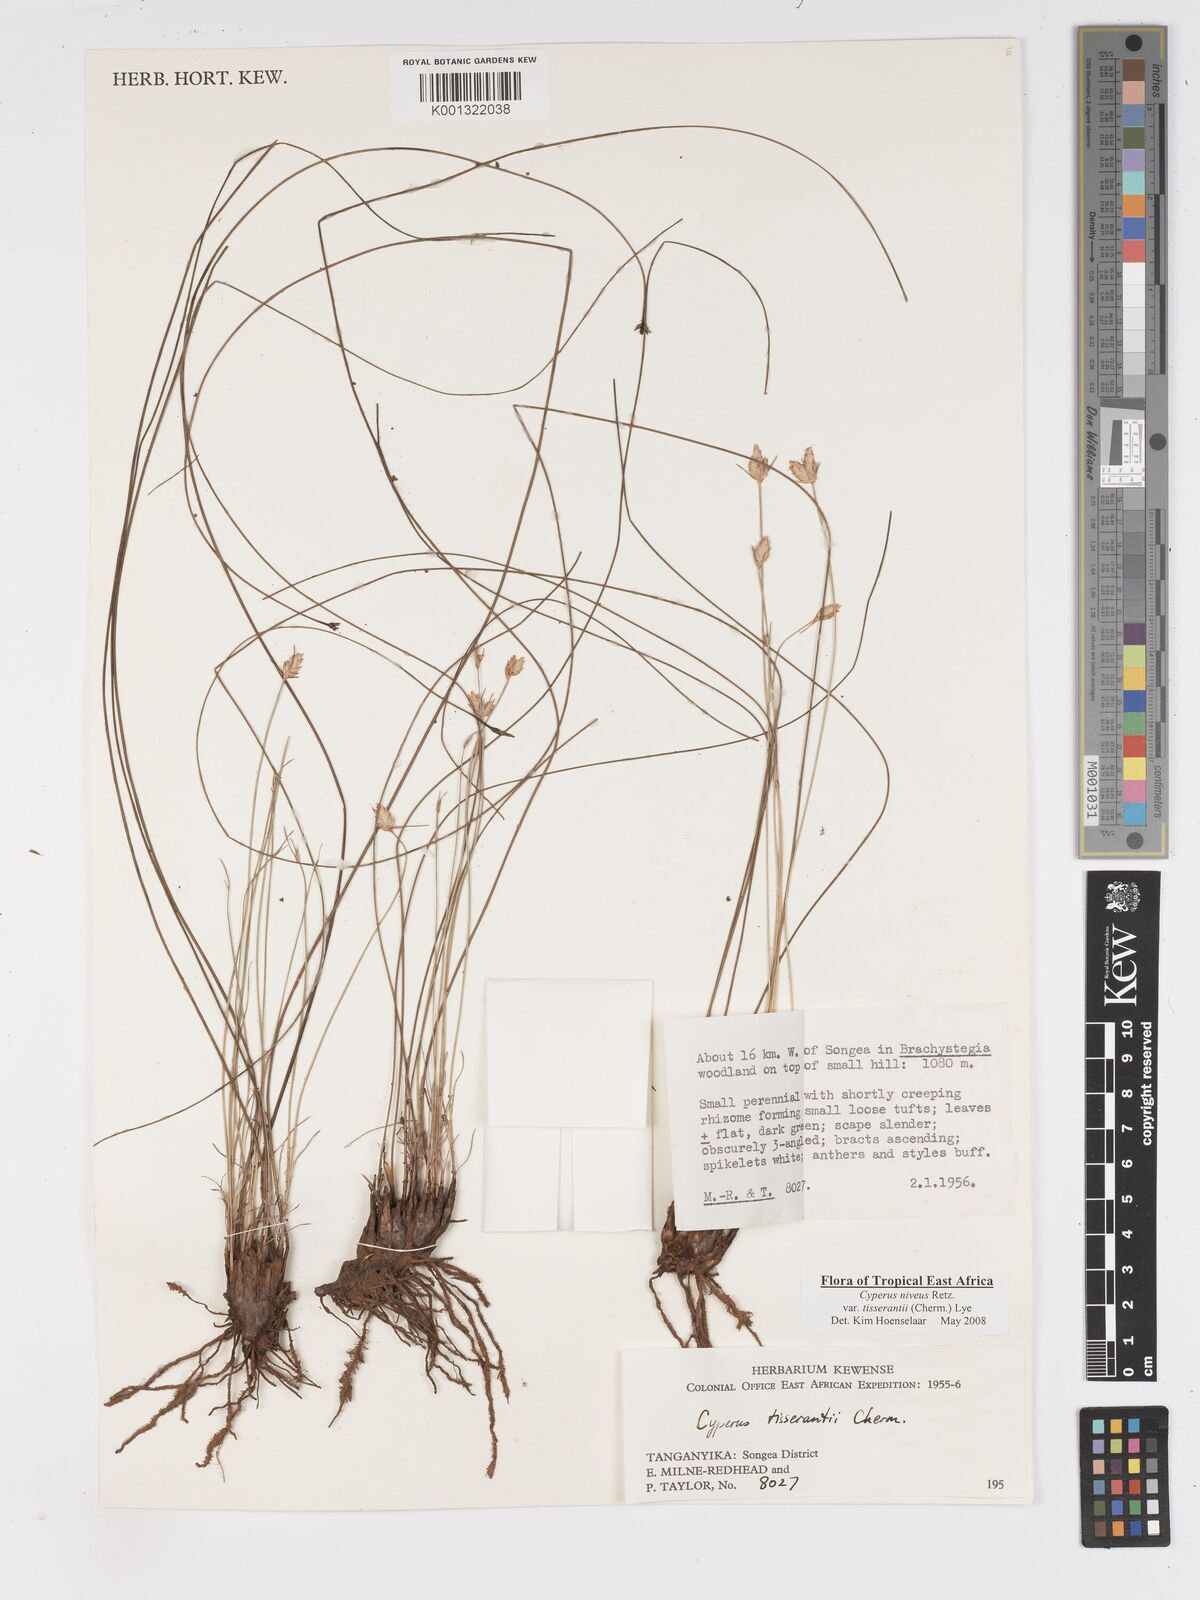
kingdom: Plantae
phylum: Tracheophyta
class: Liliopsida
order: Poales
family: Cyperaceae
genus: Cyperus
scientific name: Cyperus niveus
